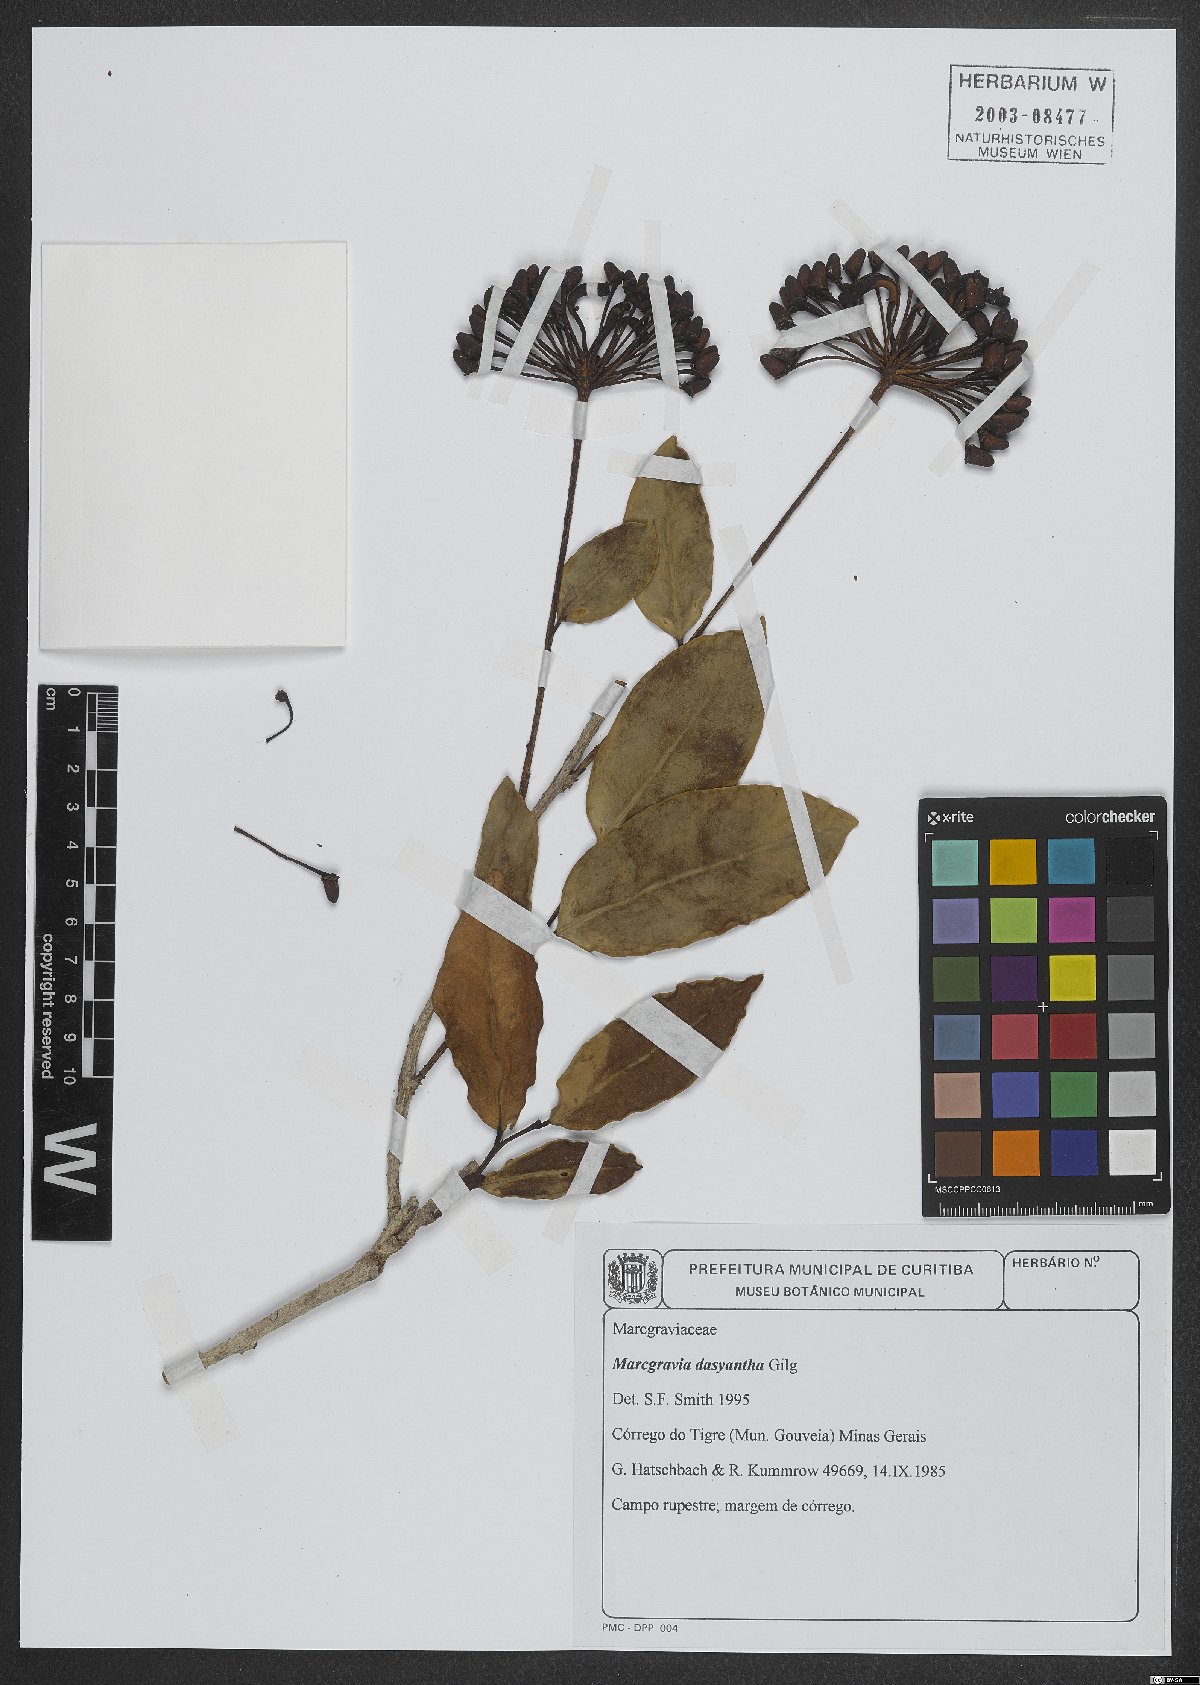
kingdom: Plantae
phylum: Tracheophyta
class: Magnoliopsida
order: Ericales
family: Marcgraviaceae
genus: Marcgravia
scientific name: Marcgravia polyantha
